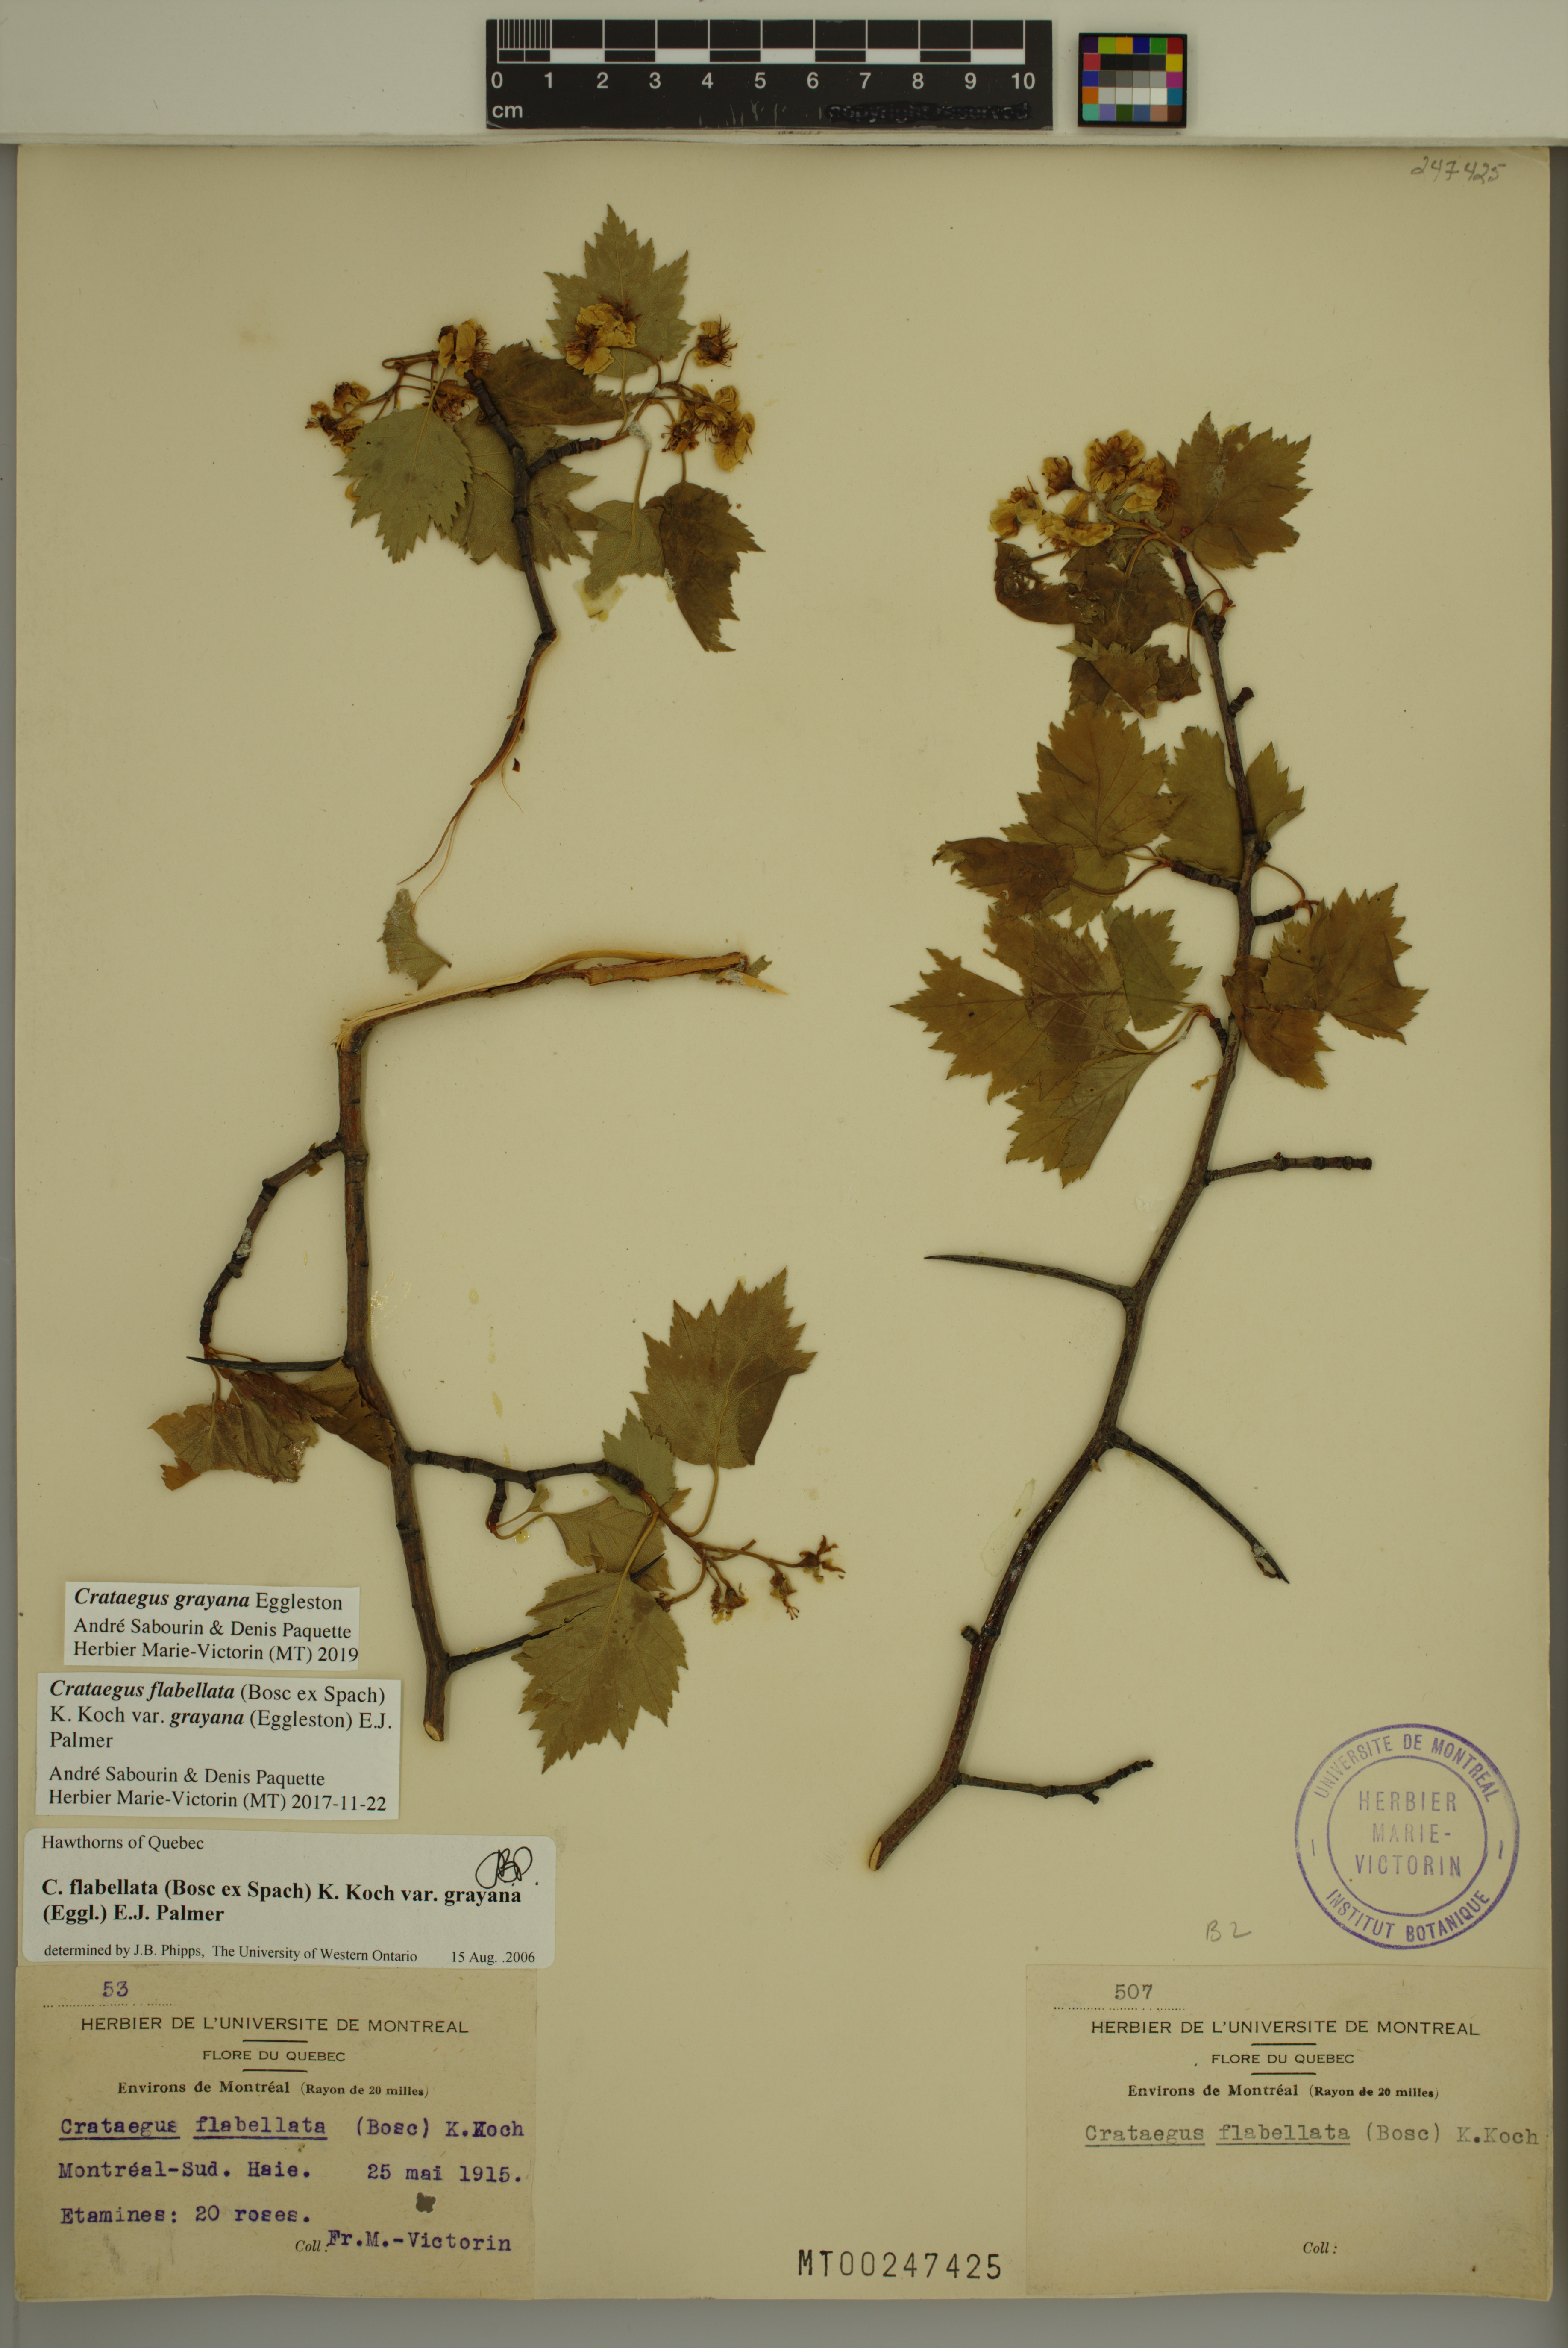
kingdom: Plantae
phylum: Tracheophyta
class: Magnoliopsida
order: Rosales
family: Rosaceae
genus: Crataegus
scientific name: Crataegus schuettei
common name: Schuette's hawthorn
